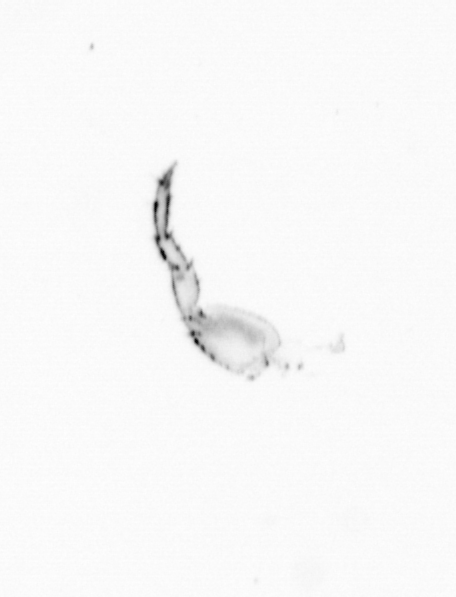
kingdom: Chromista
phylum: Ochrophyta
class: Bacillariophyceae
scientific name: Bacillariophyceae
